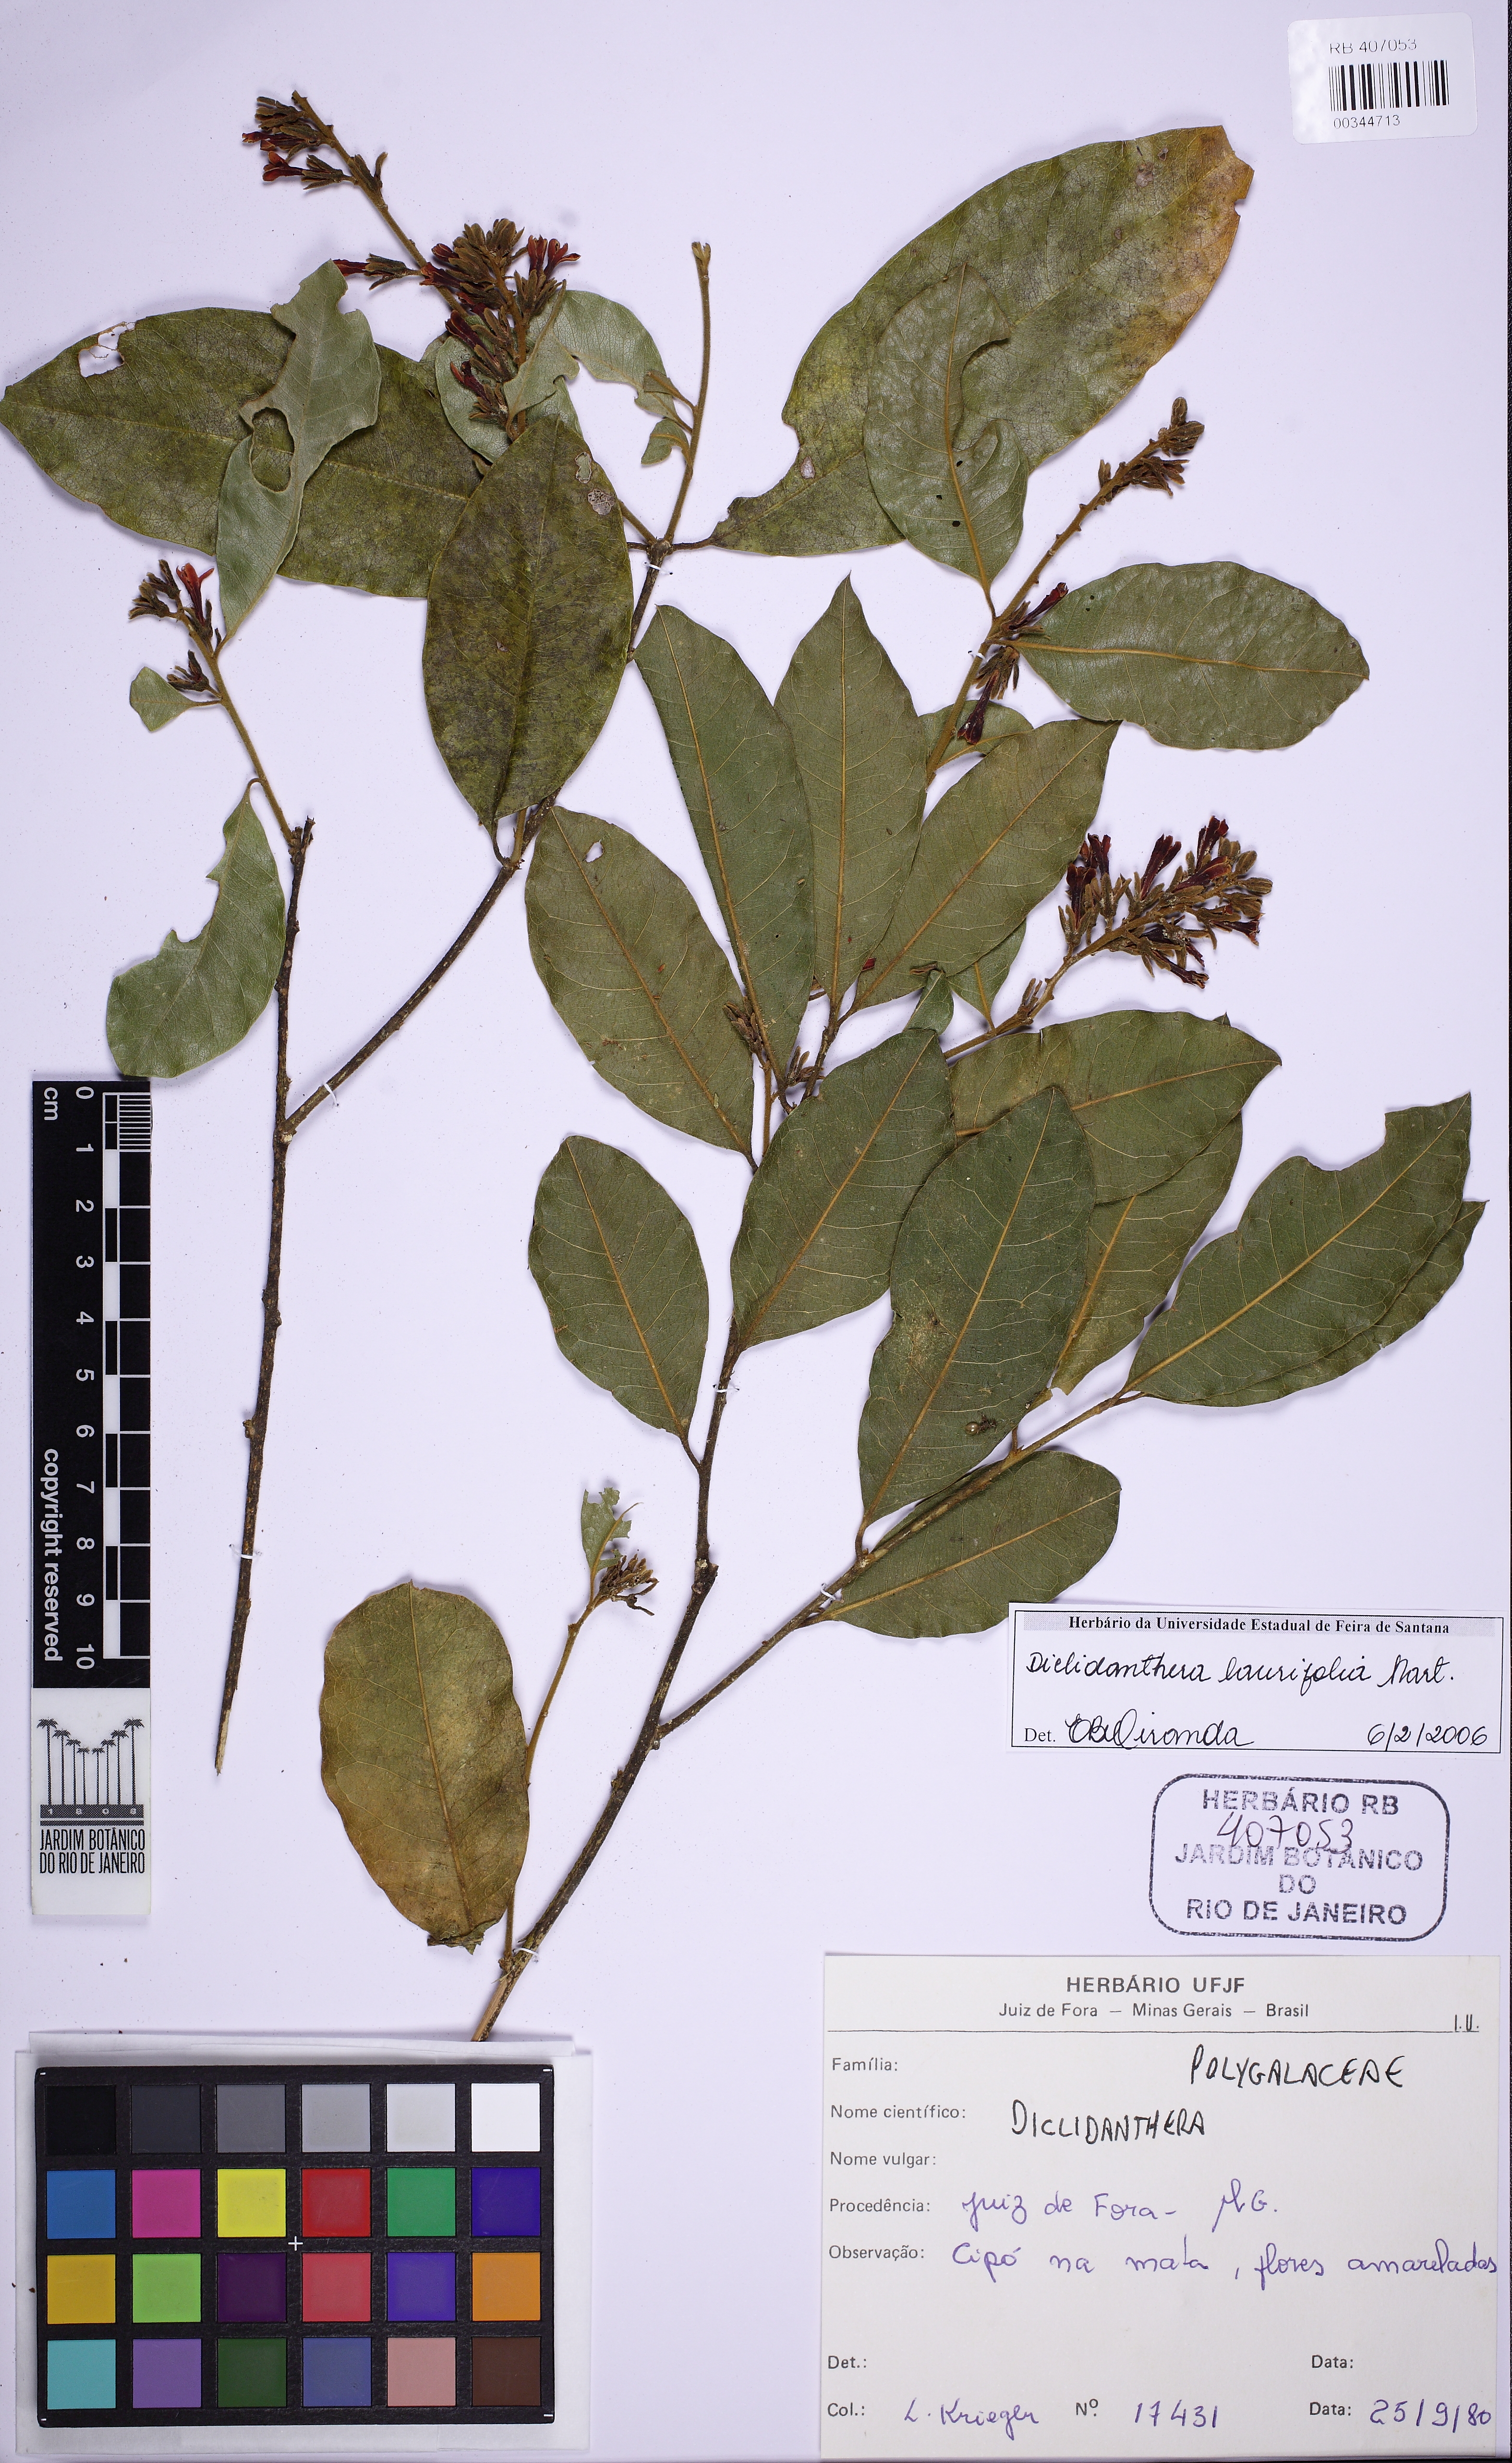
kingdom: Plantae
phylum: Tracheophyta
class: Magnoliopsida
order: Fabales
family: Polygalaceae
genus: Diclidanthera
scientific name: Diclidanthera laurifolia
